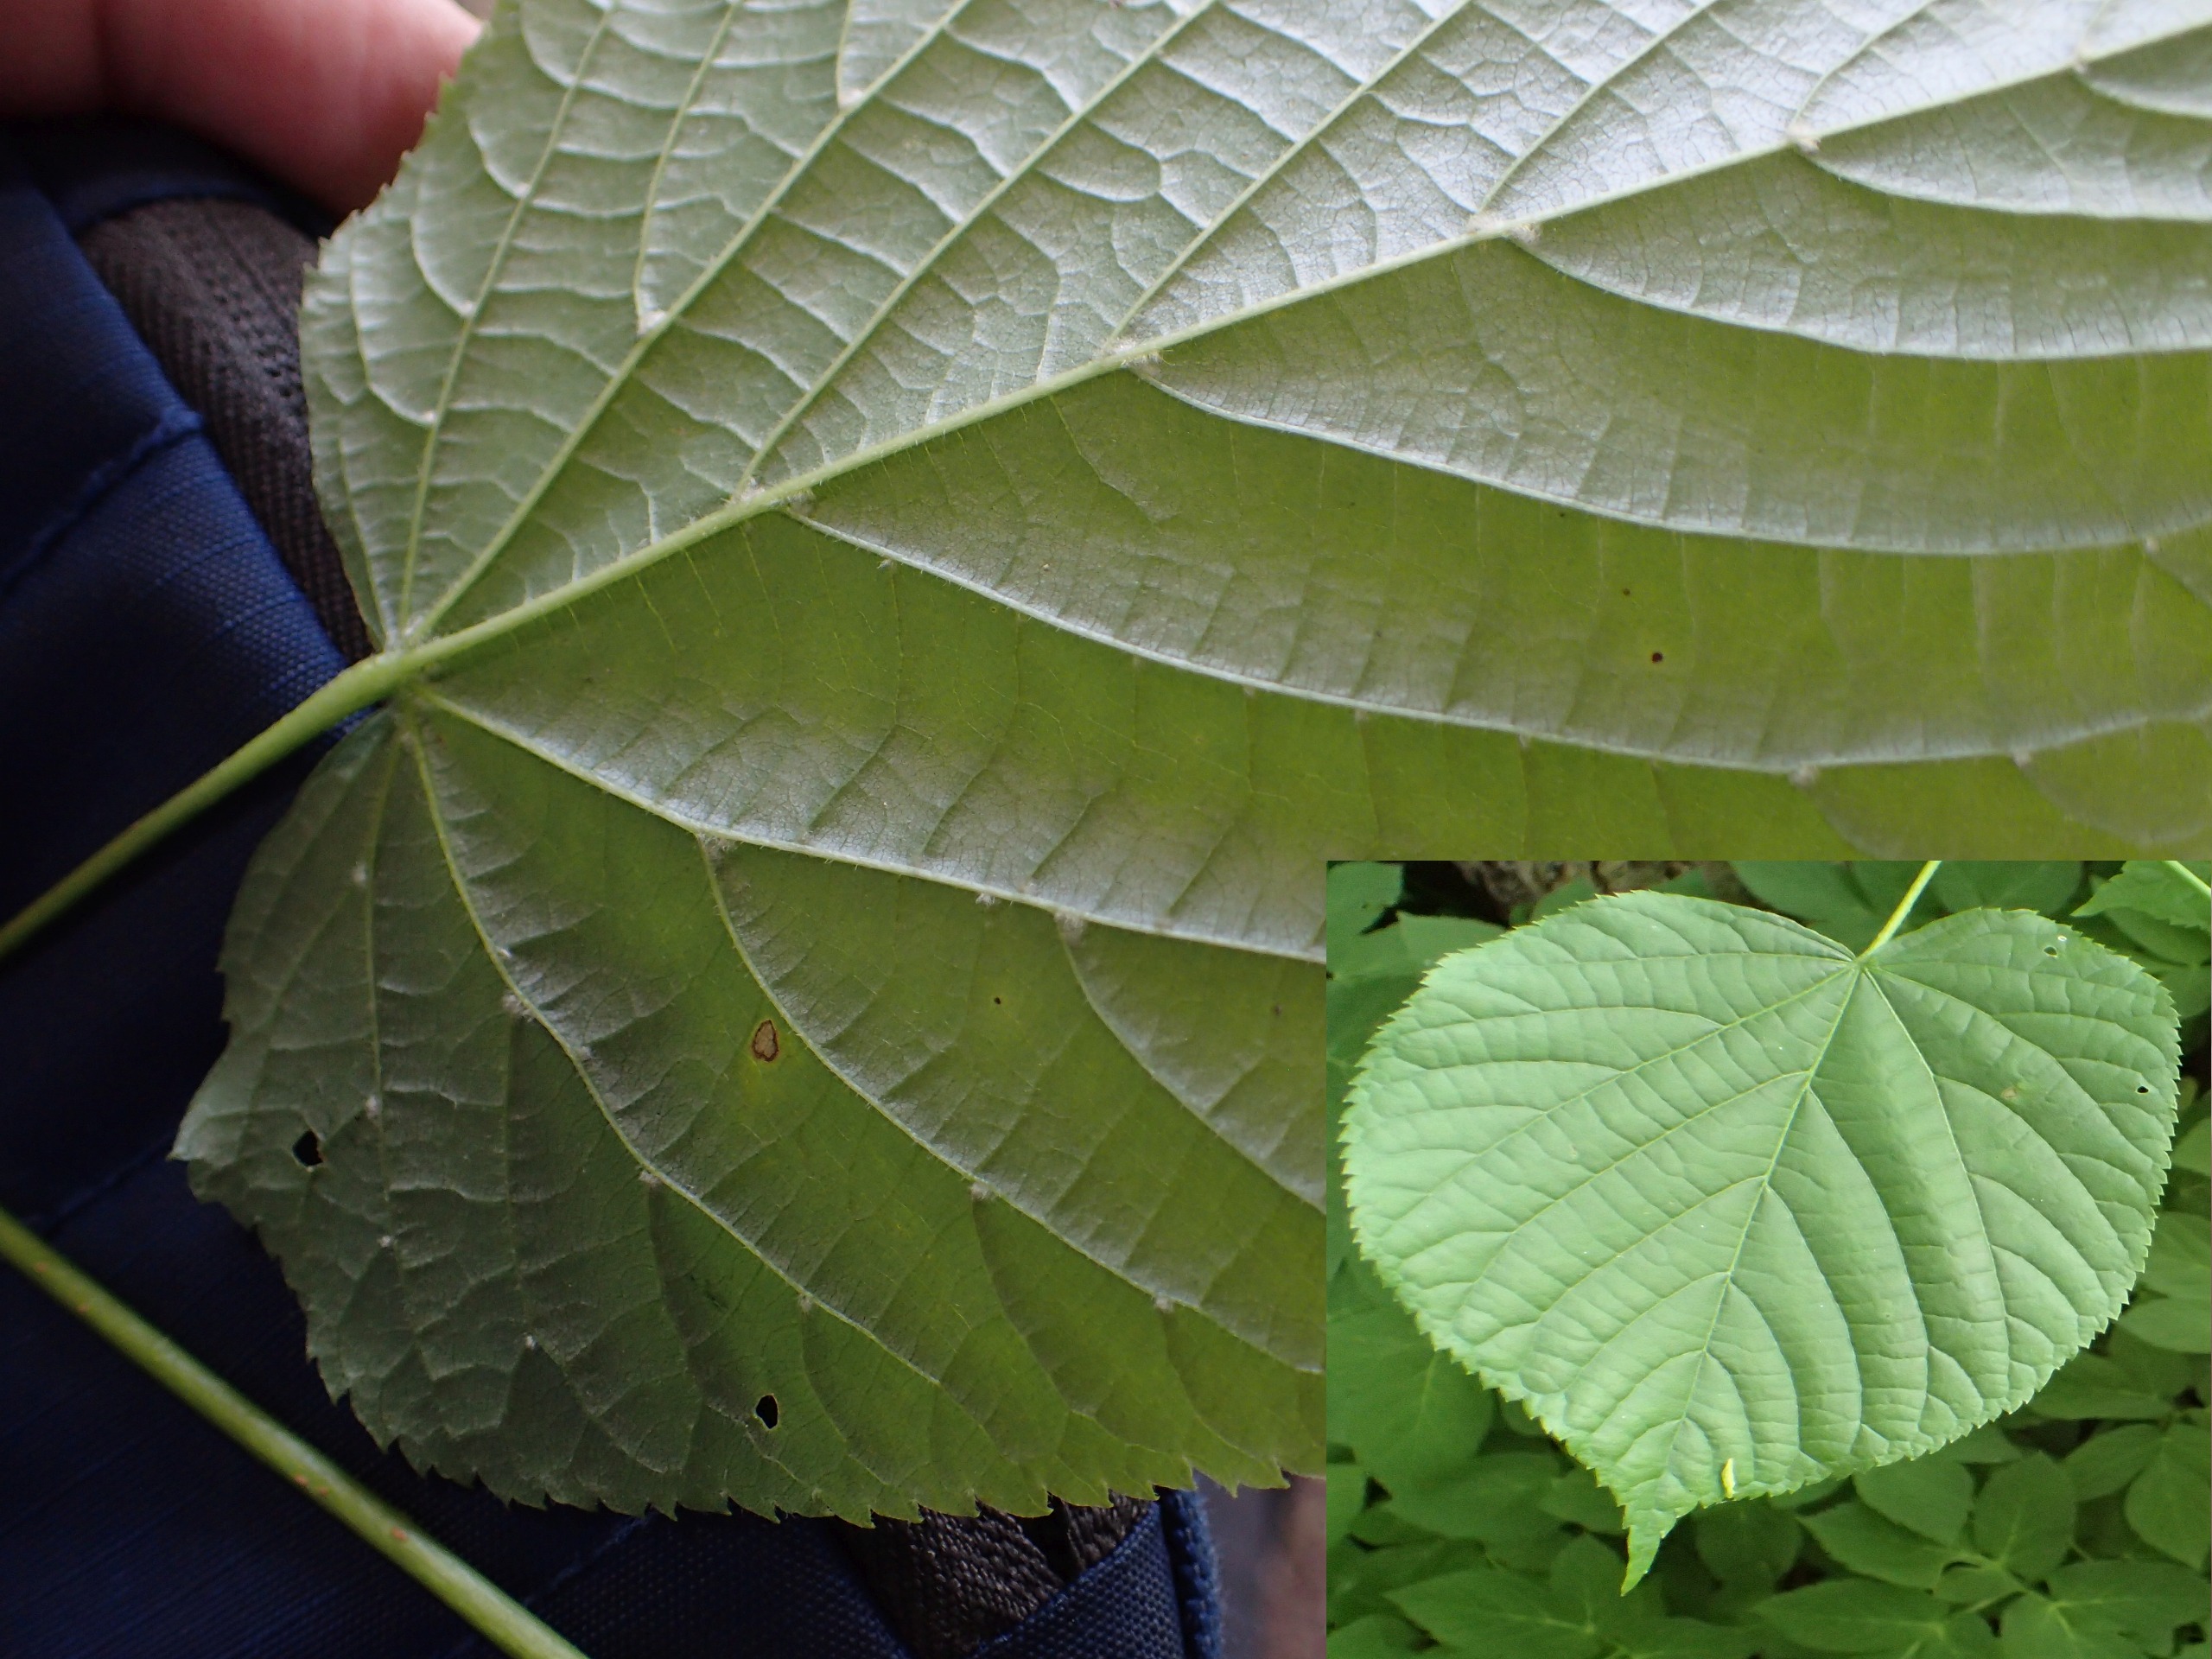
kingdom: Plantae
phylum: Tracheophyta
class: Magnoliopsida
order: Malvales
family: Malvaceae
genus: Tilia
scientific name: Tilia europaea
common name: Park-lind
